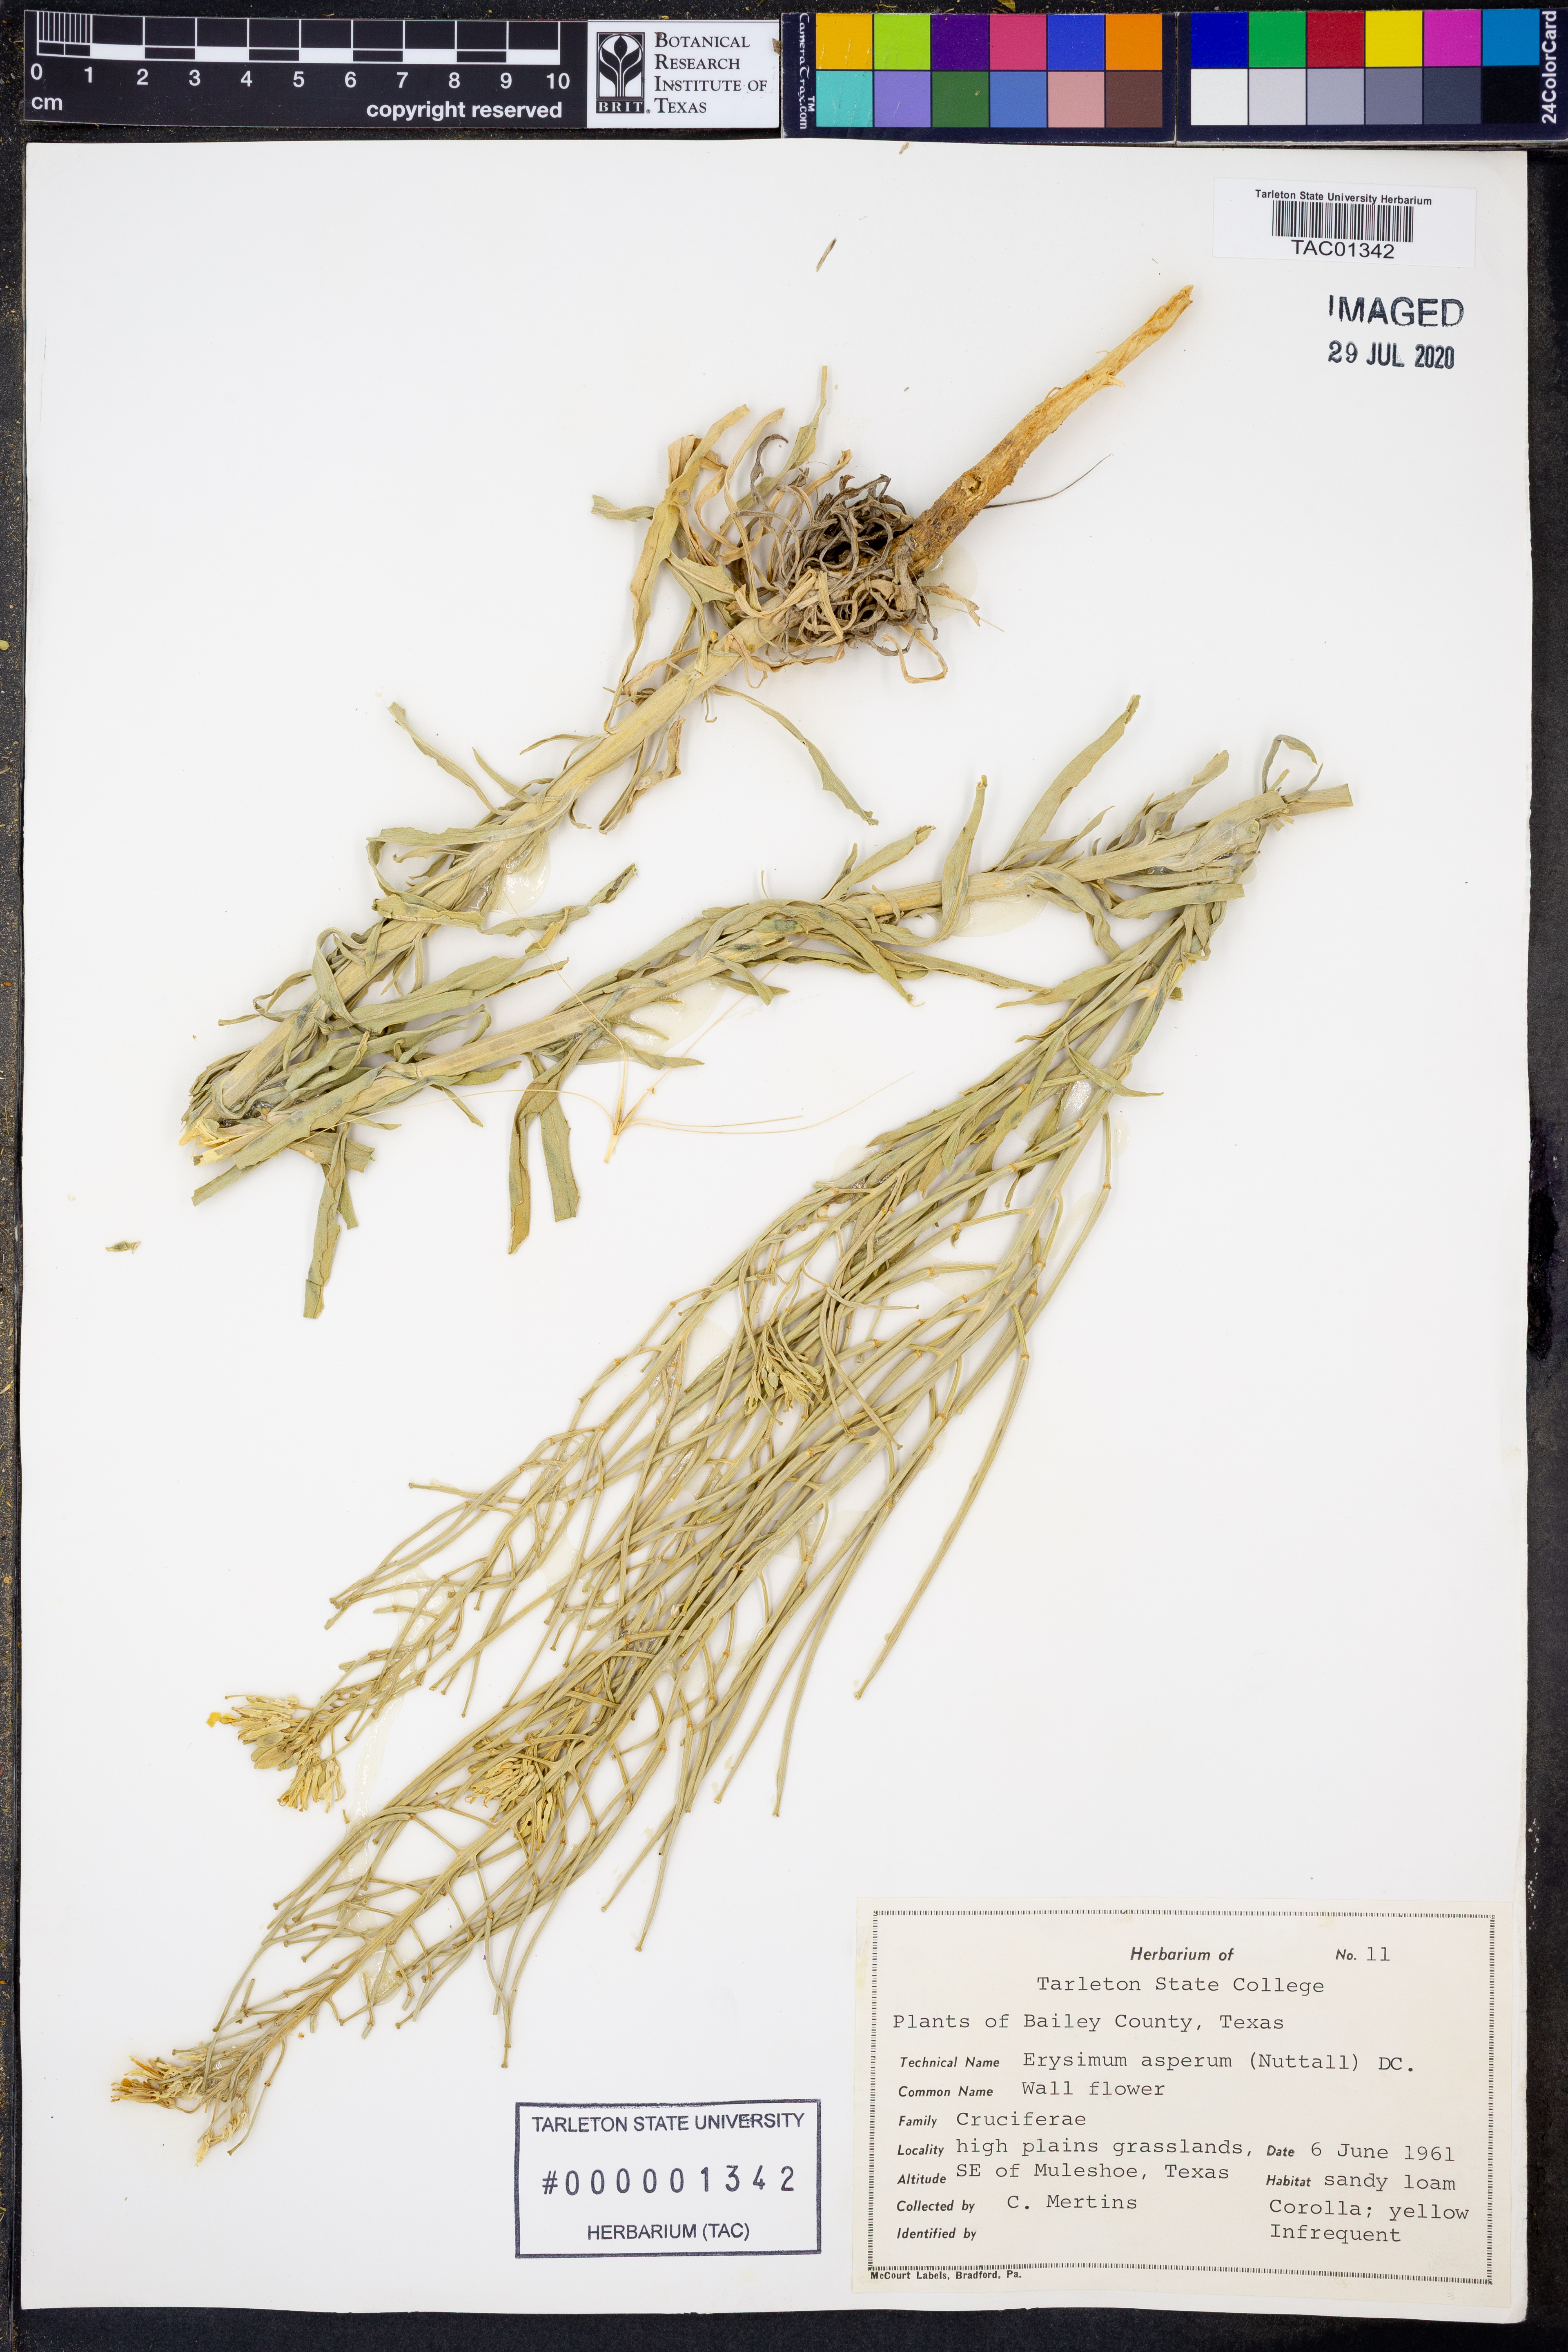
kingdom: Plantae
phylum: Tracheophyta
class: Magnoliopsida
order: Brassicales
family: Brassicaceae
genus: Erysimum
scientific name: Erysimum asperum
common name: Western wallflower
